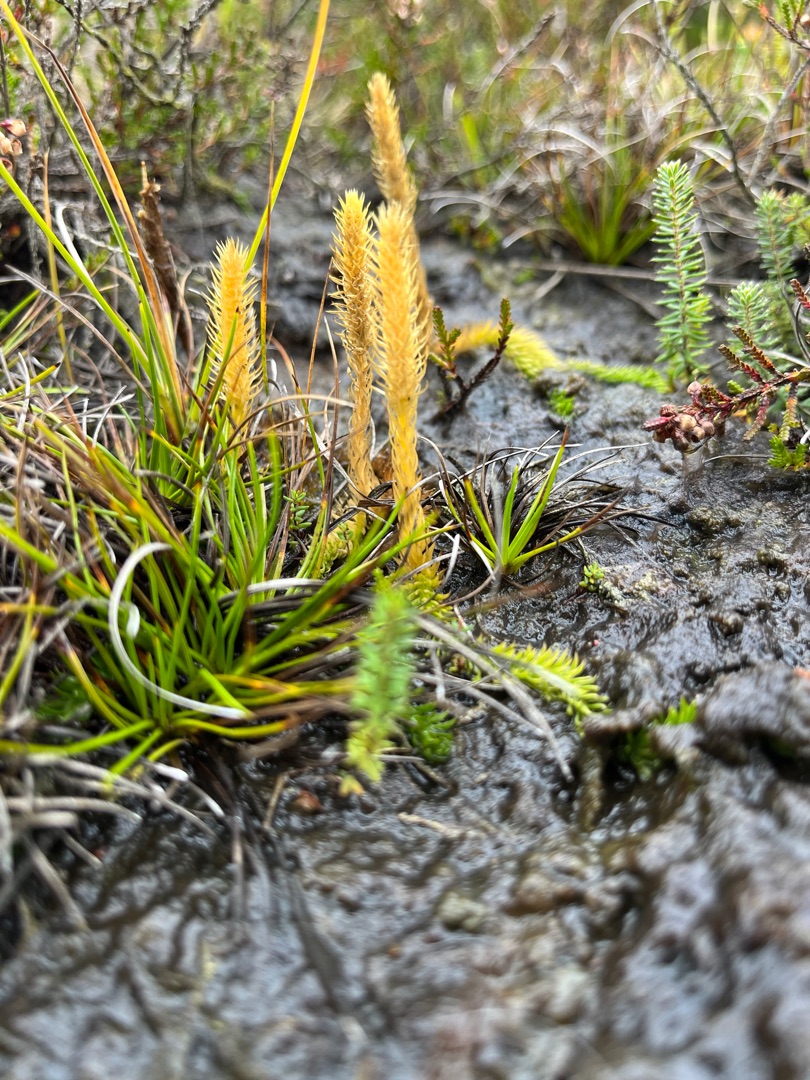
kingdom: Plantae
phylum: Tracheophyta
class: Lycopodiopsida
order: Lycopodiales
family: Lycopodiaceae
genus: Lycopodiella
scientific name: Lycopodiella inundata
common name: Liden ulvefod
